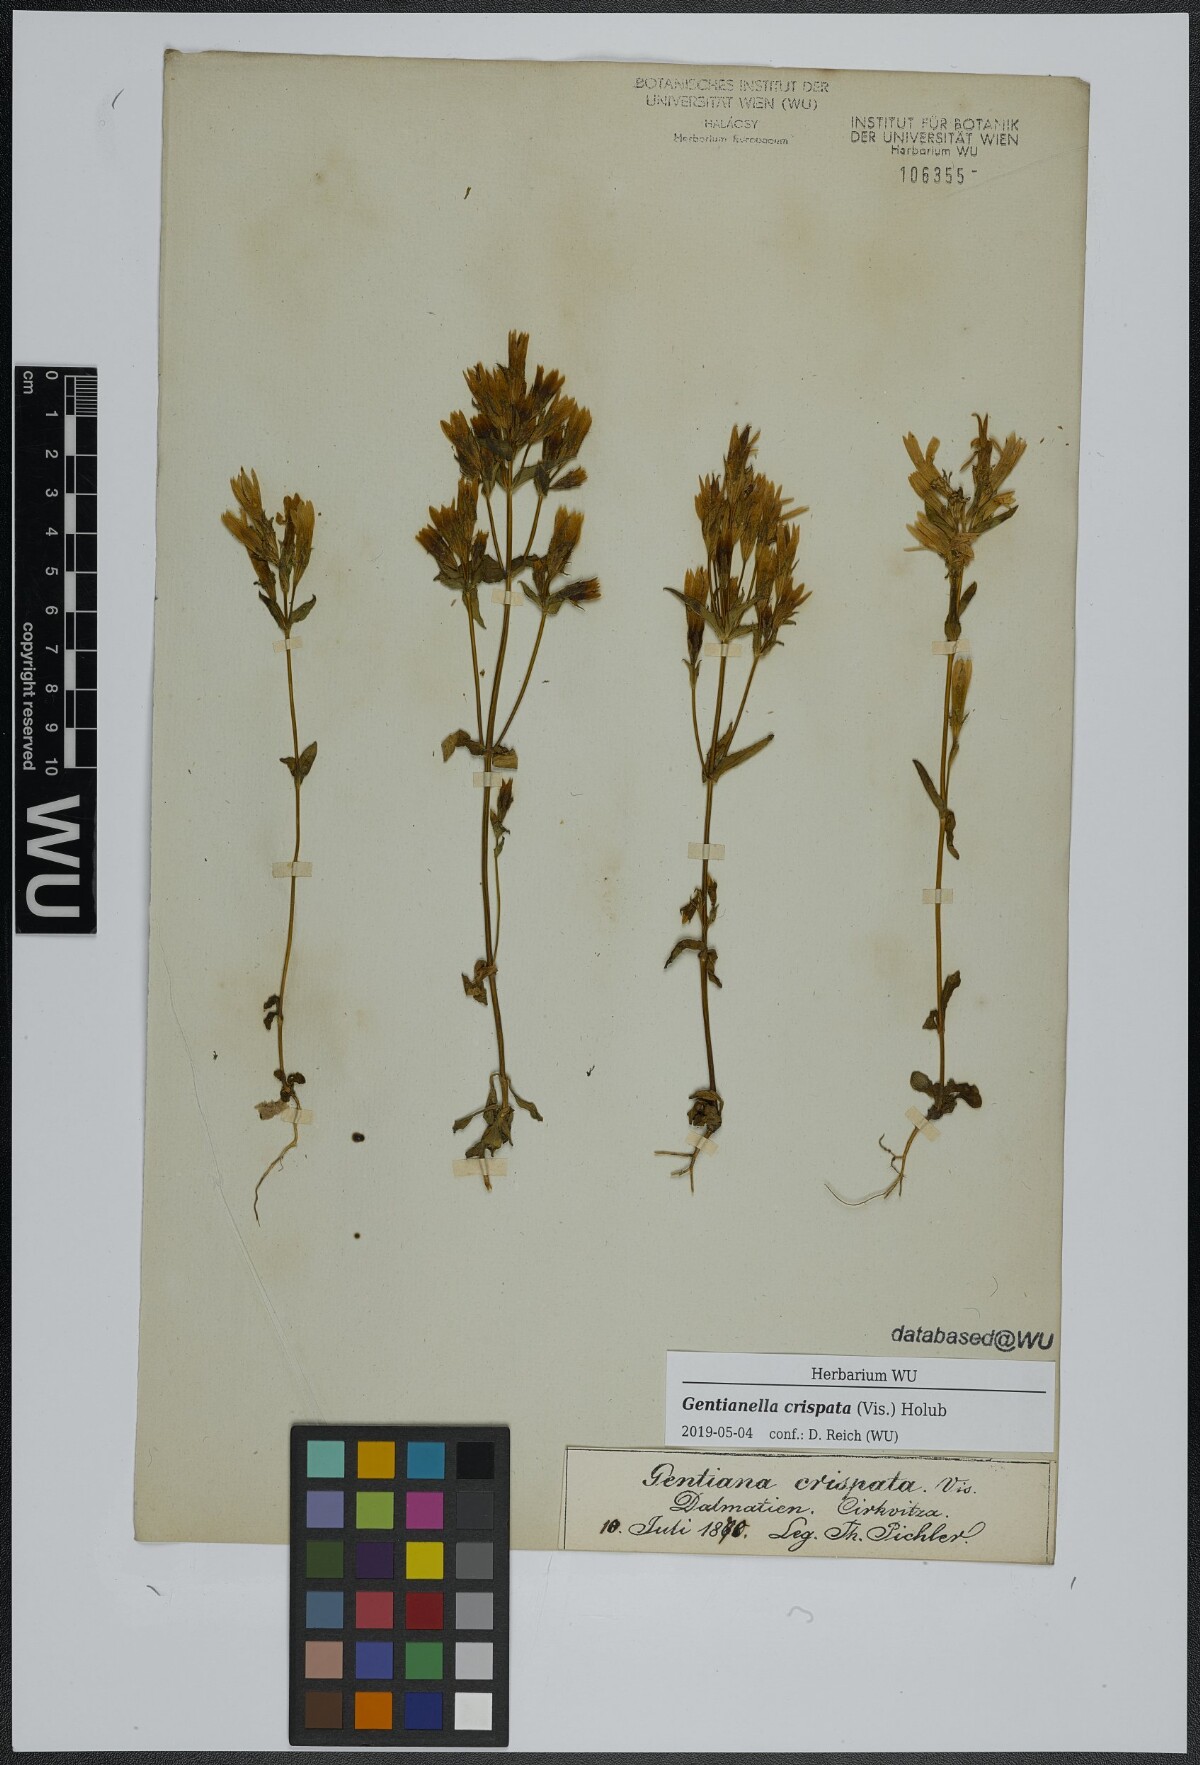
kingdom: Plantae
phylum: Tracheophyta
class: Magnoliopsida
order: Gentianales
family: Gentianaceae
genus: Gentianella
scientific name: Gentianella crispata
